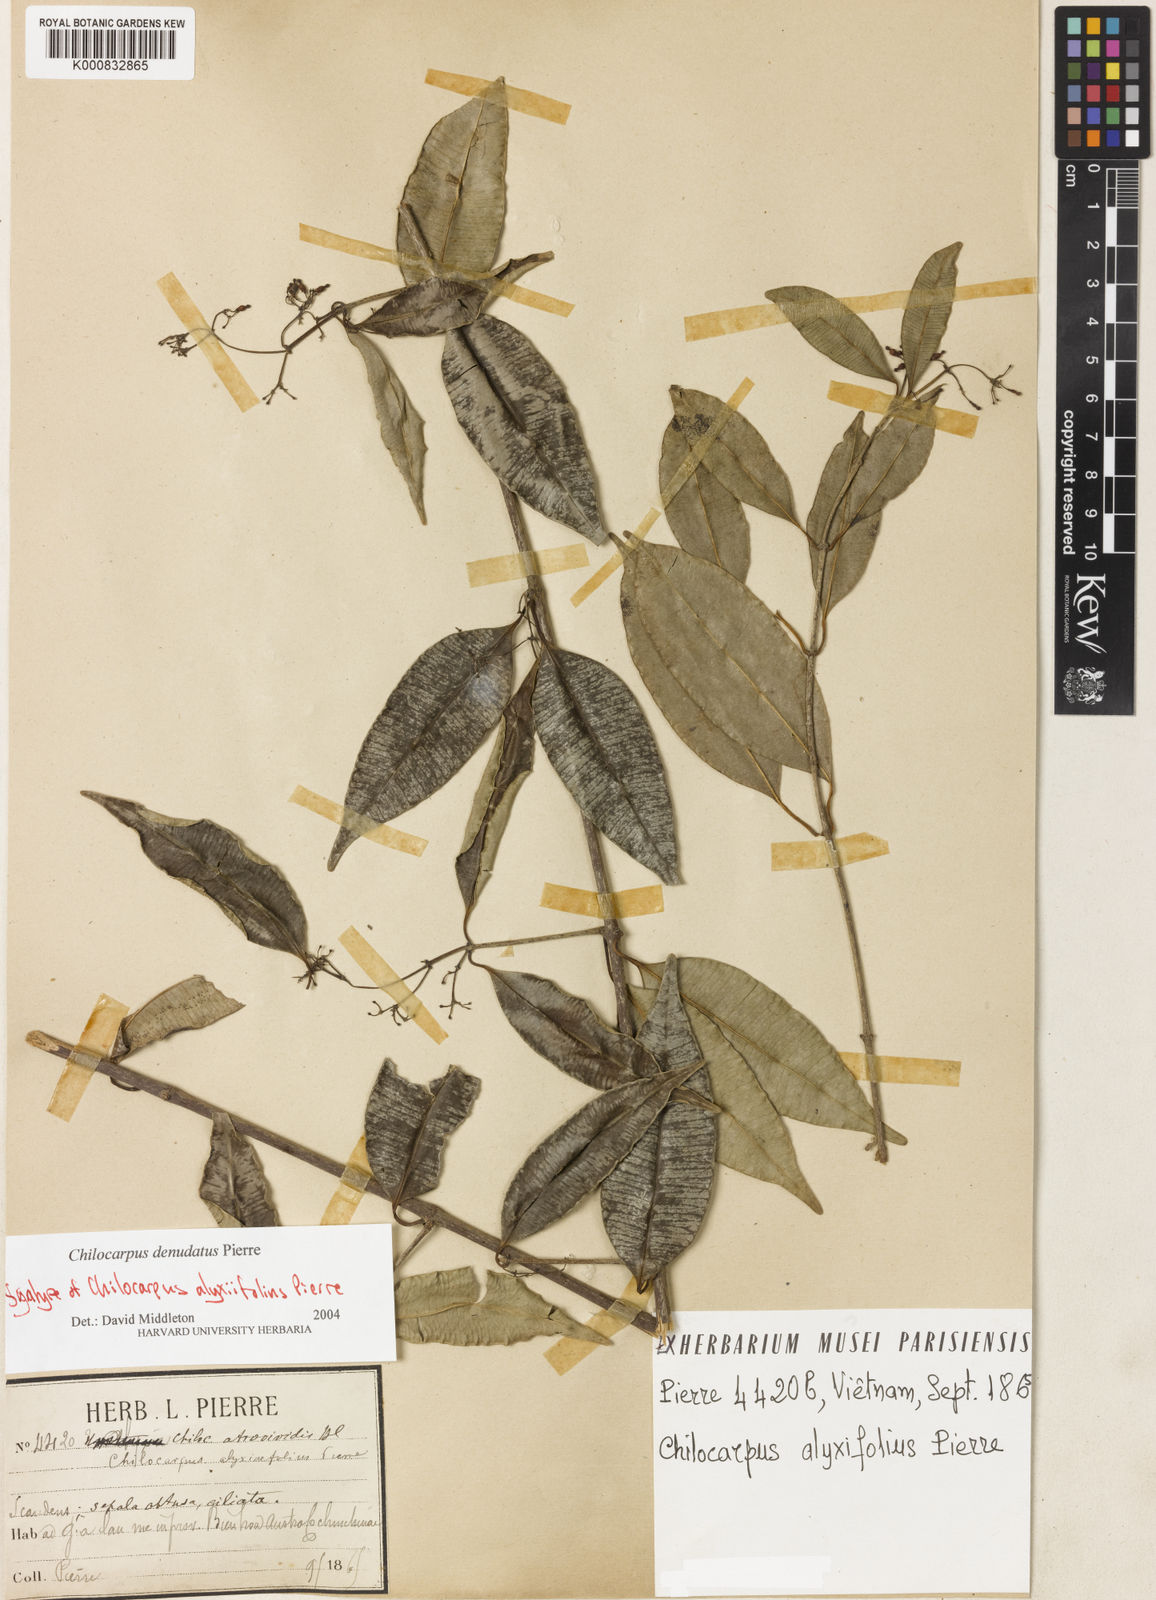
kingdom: Plantae
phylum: Tracheophyta
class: Magnoliopsida
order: Gentianales
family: Apocynaceae
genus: Chilocarpus
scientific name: Chilocarpus
